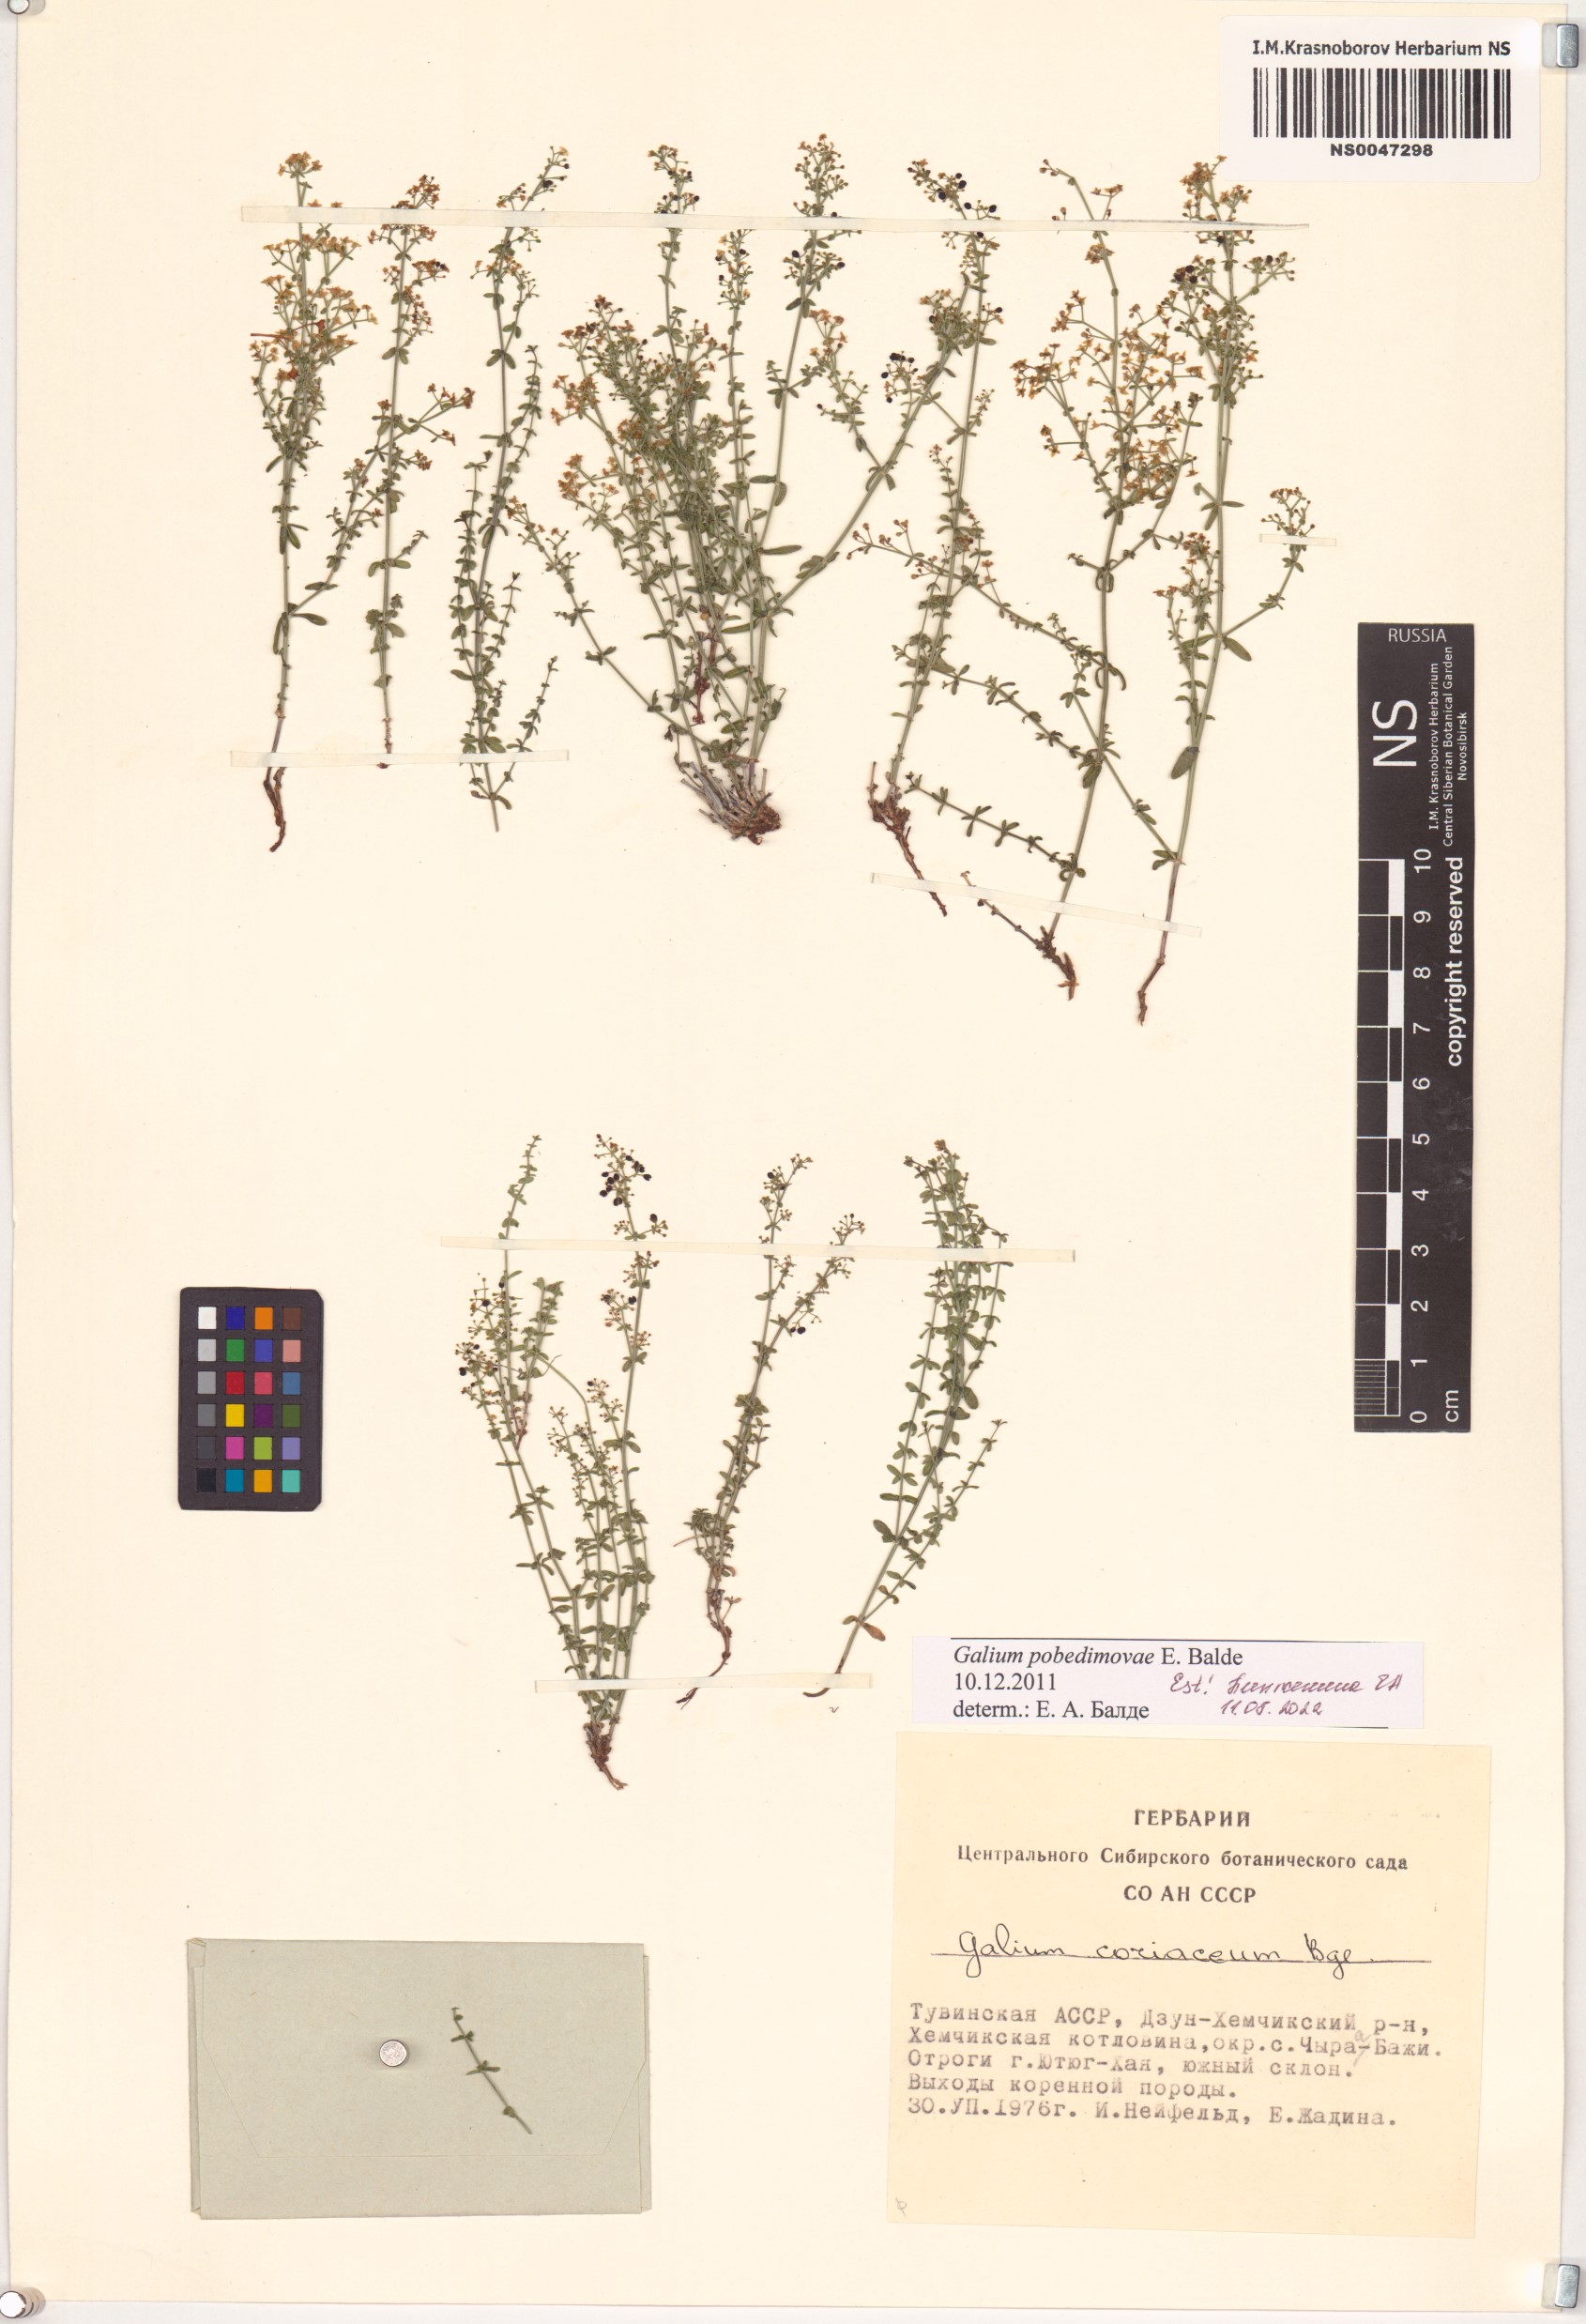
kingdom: Plantae
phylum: Tracheophyta
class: Magnoliopsida
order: Gentianales
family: Rubiaceae
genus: Galium
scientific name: Galium pobedimovae
